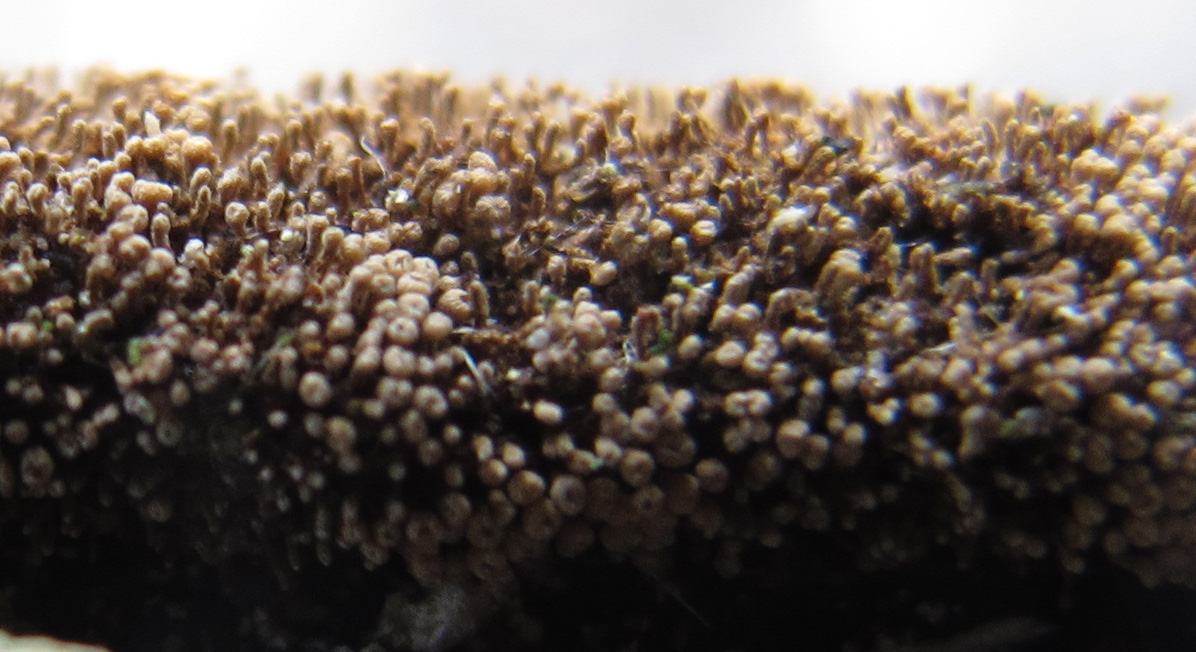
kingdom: Fungi
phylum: Basidiomycota
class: Agaricomycetes
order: Agaricales
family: Niaceae
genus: Merismodes
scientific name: Merismodes anomala
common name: almindelig læderskål
